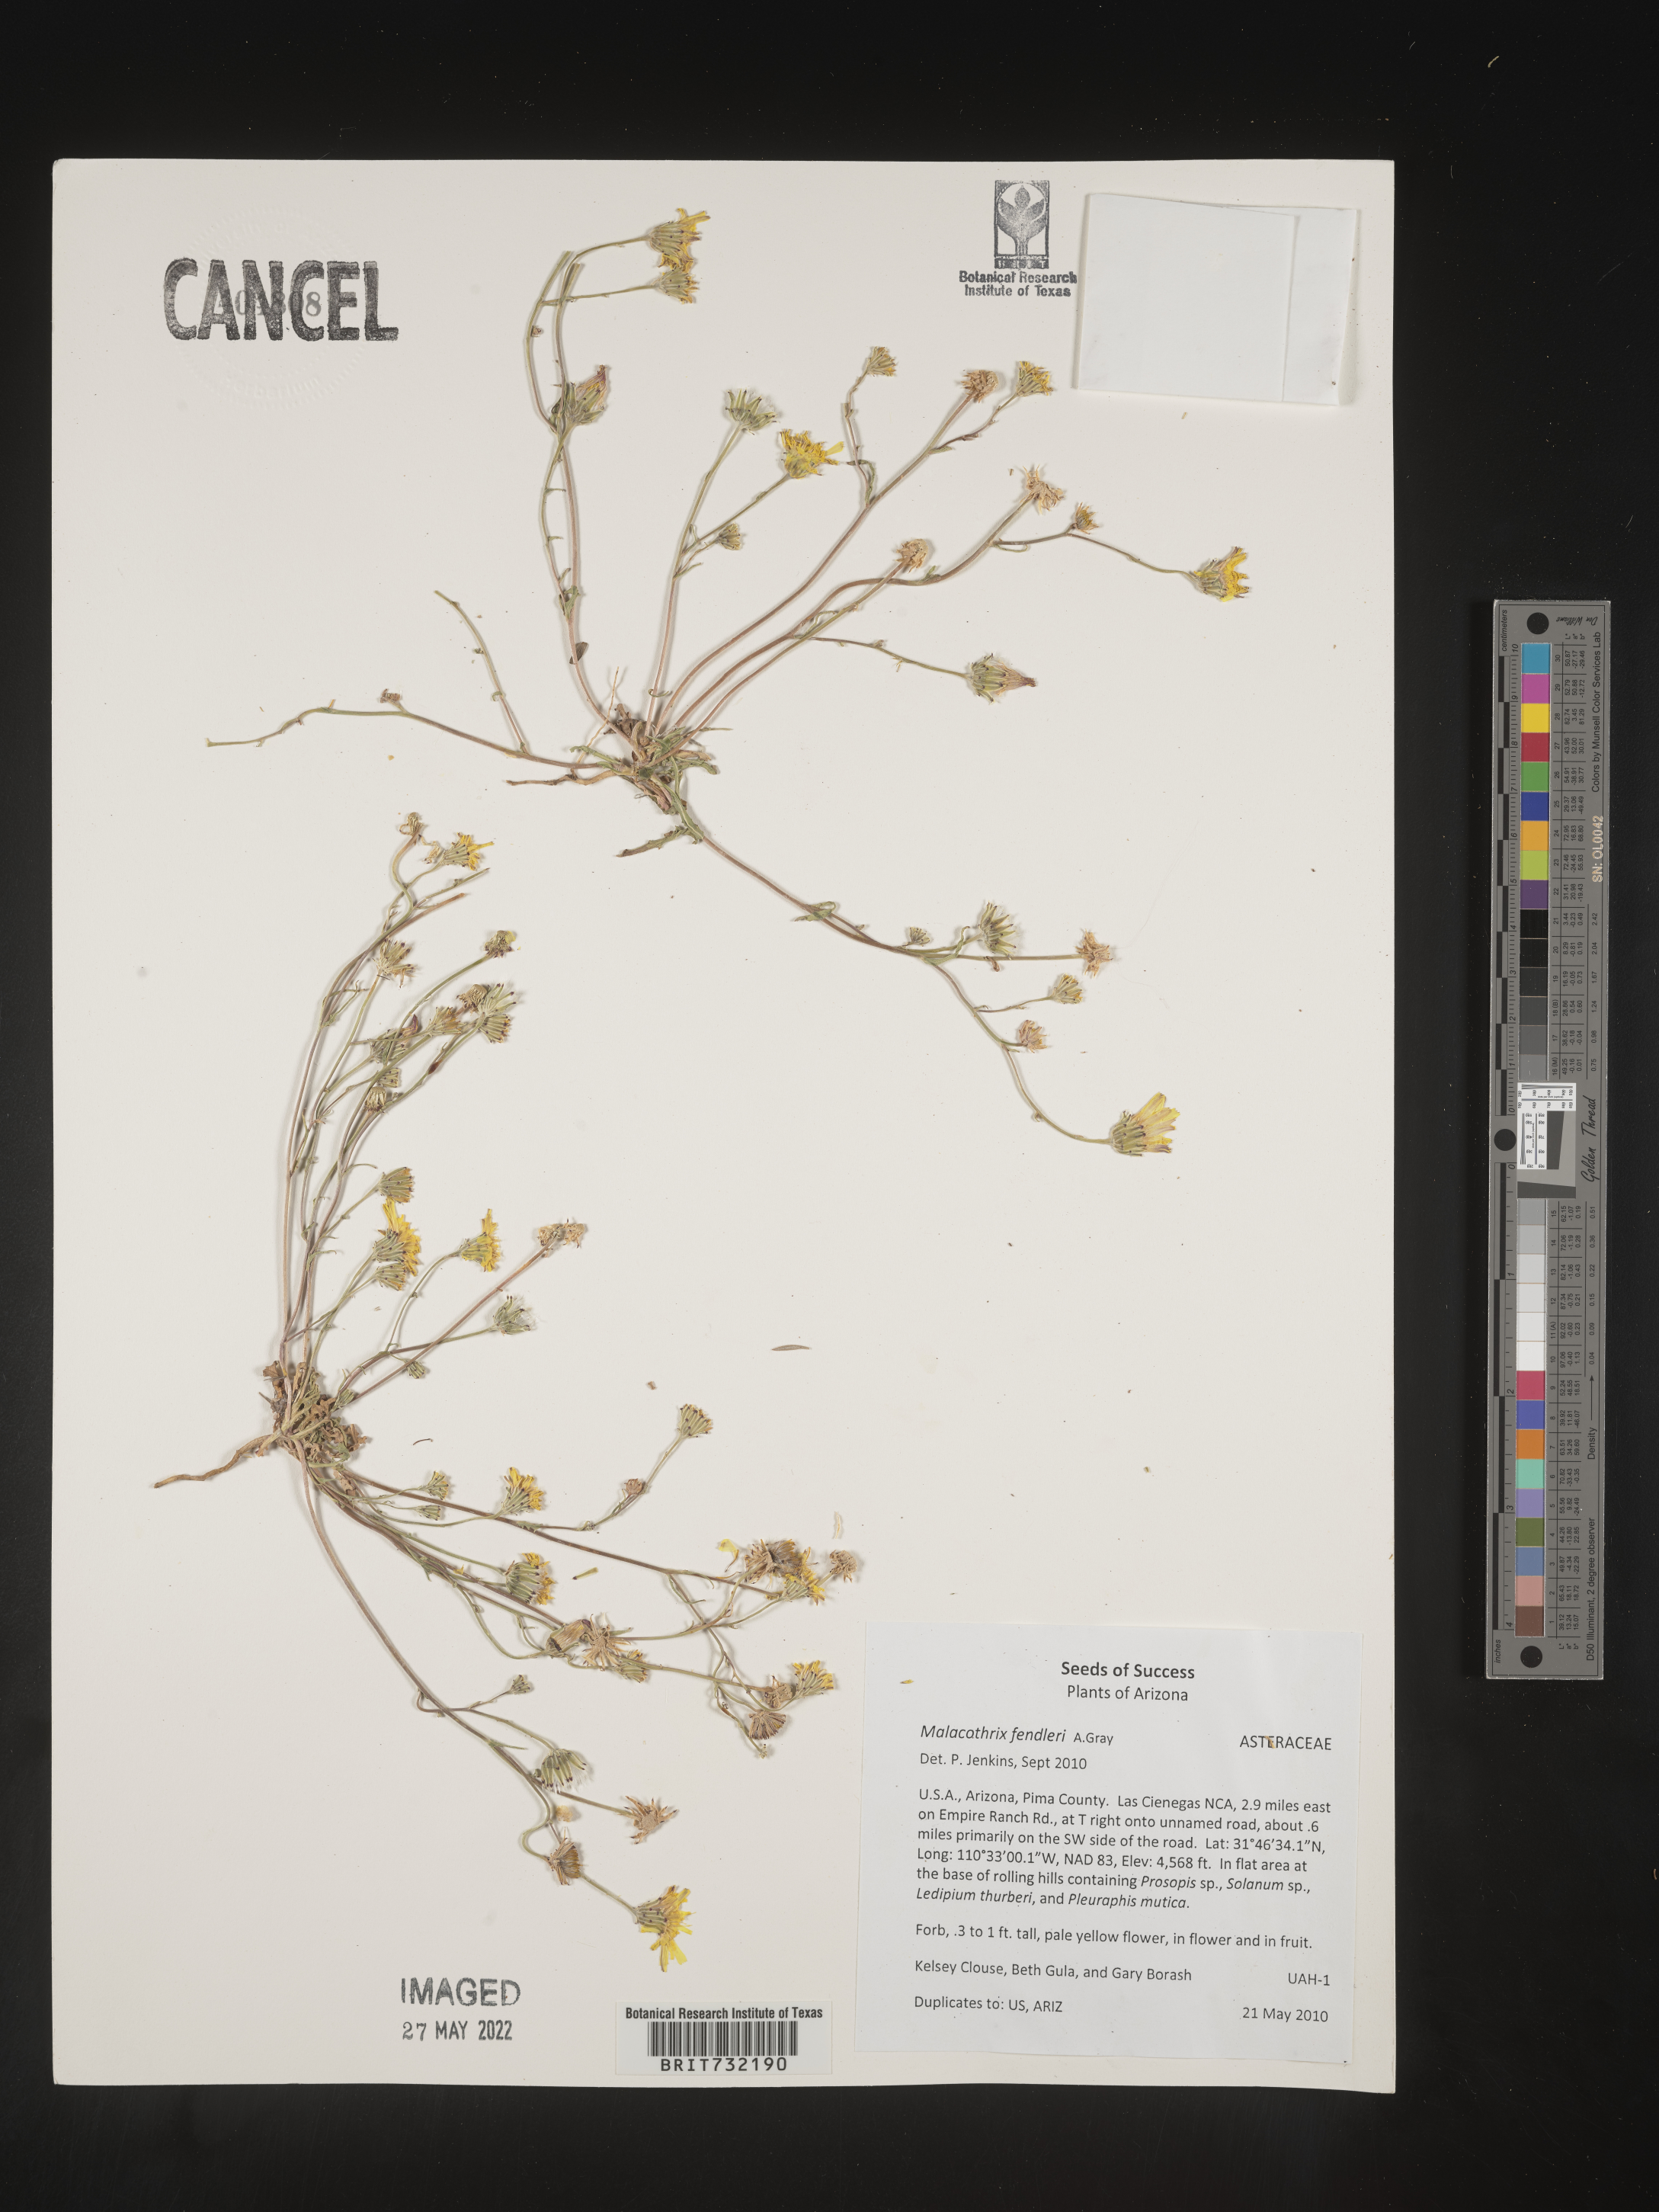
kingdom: Plantae
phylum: Tracheophyta
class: Magnoliopsida
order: Asterales
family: Asteraceae
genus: Malacothrix
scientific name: Malacothrix
